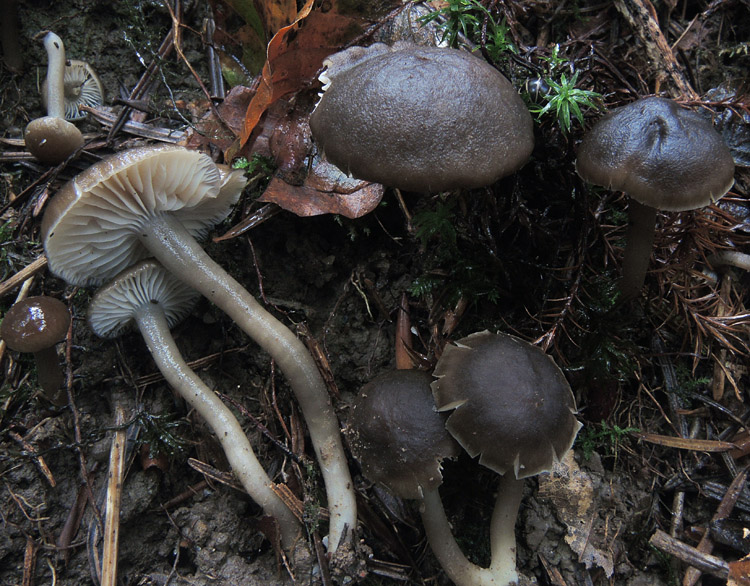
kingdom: Fungi
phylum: Basidiomycota
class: Agaricomycetes
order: Agaricales
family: Clavariaceae
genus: Camarophyllopsis
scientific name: Camarophyllopsis atrovelutina
